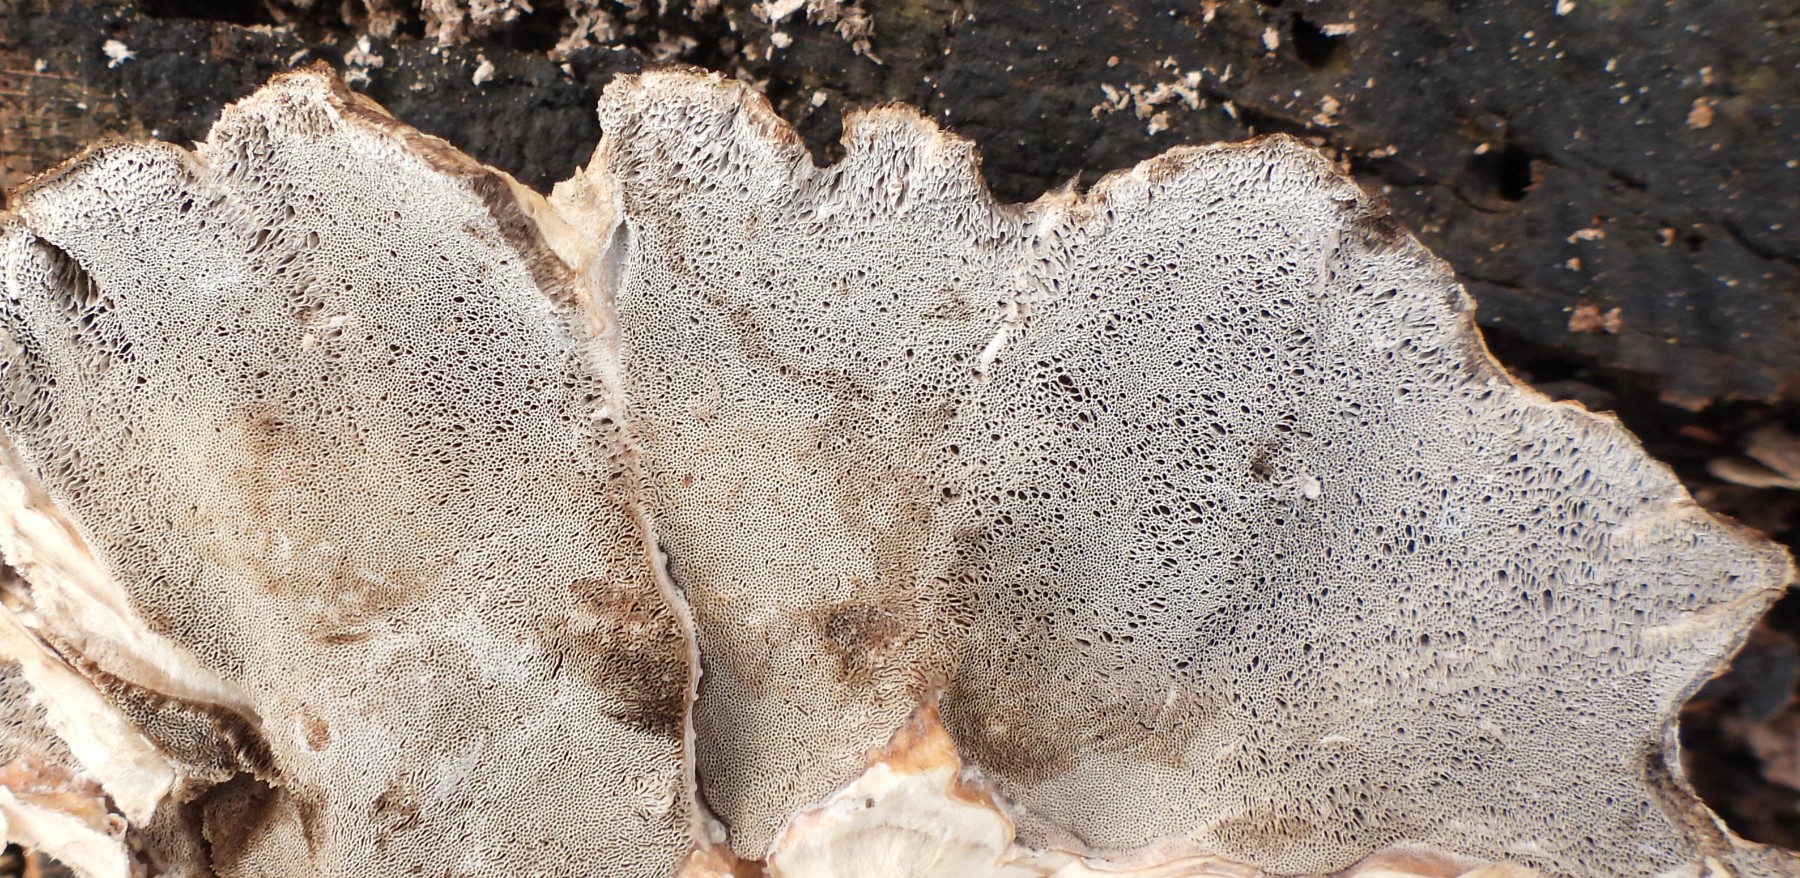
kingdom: Fungi
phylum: Basidiomycota
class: Agaricomycetes
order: Polyporales
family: Phanerochaetaceae
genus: Bjerkandera
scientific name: Bjerkandera adusta
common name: sveden sodporesvamp
